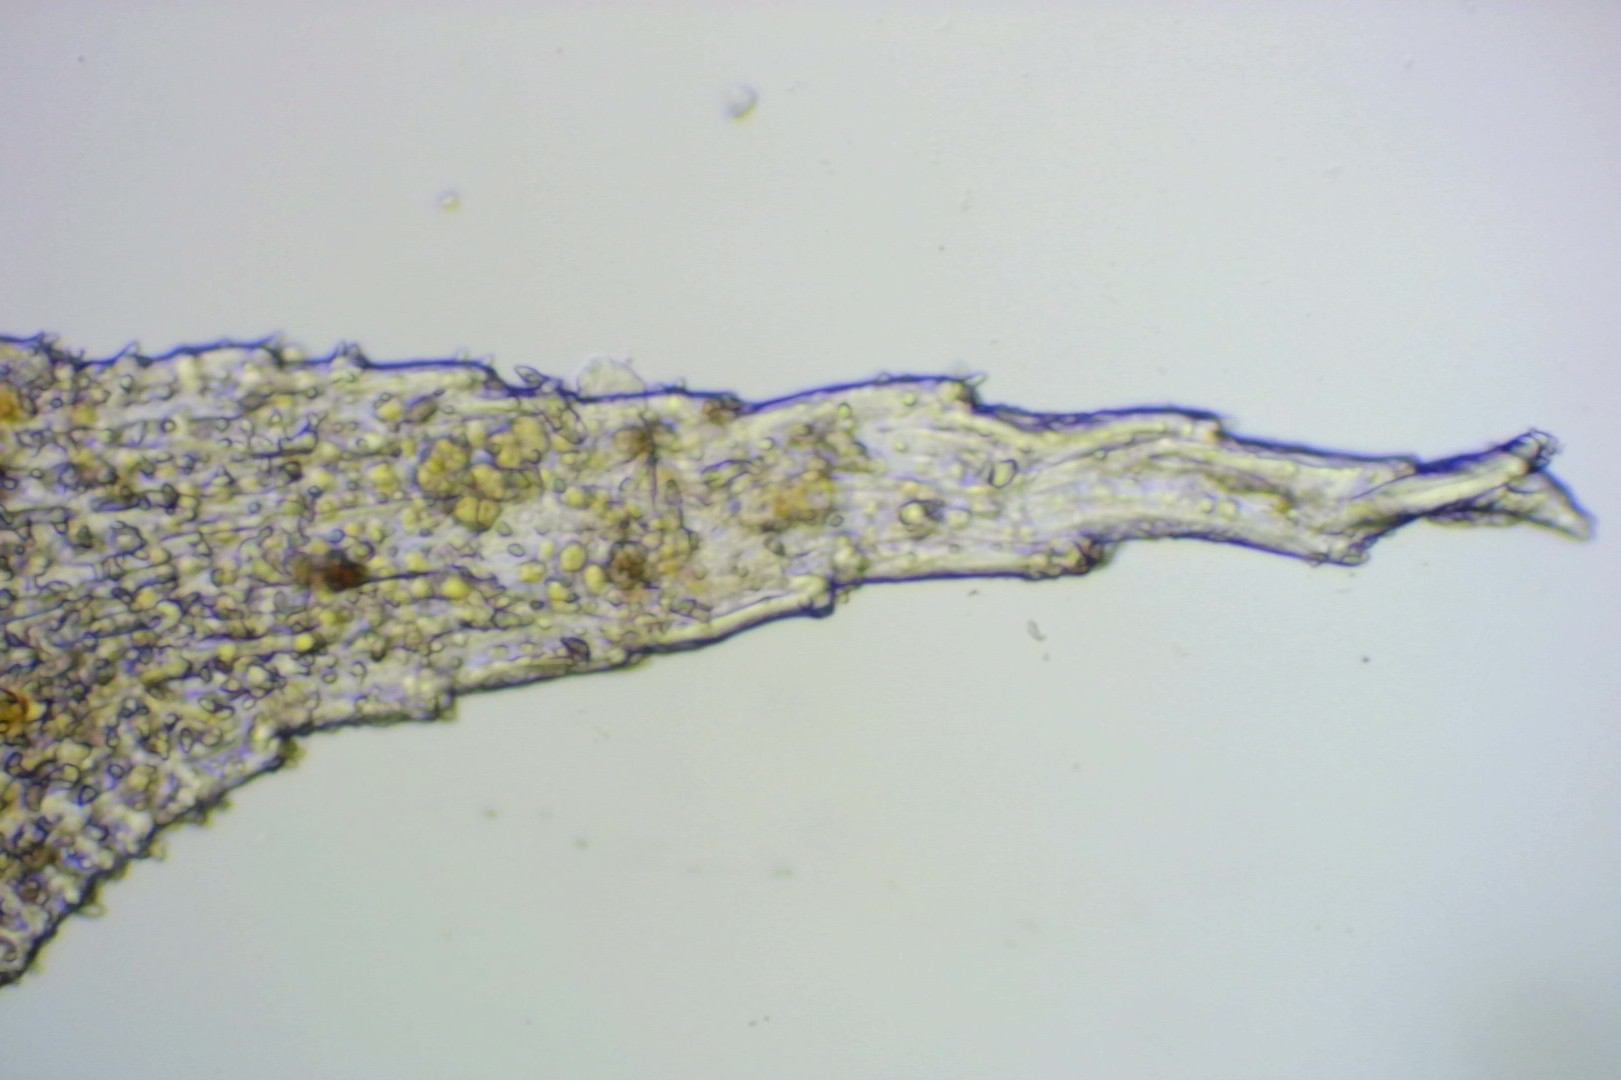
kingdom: Plantae
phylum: Bryophyta
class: Bryopsida
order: Hedwigiales
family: Hedwigiaceae
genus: Hedwigia
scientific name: Hedwigia ciliata
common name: Hvidspidset hedwigia
